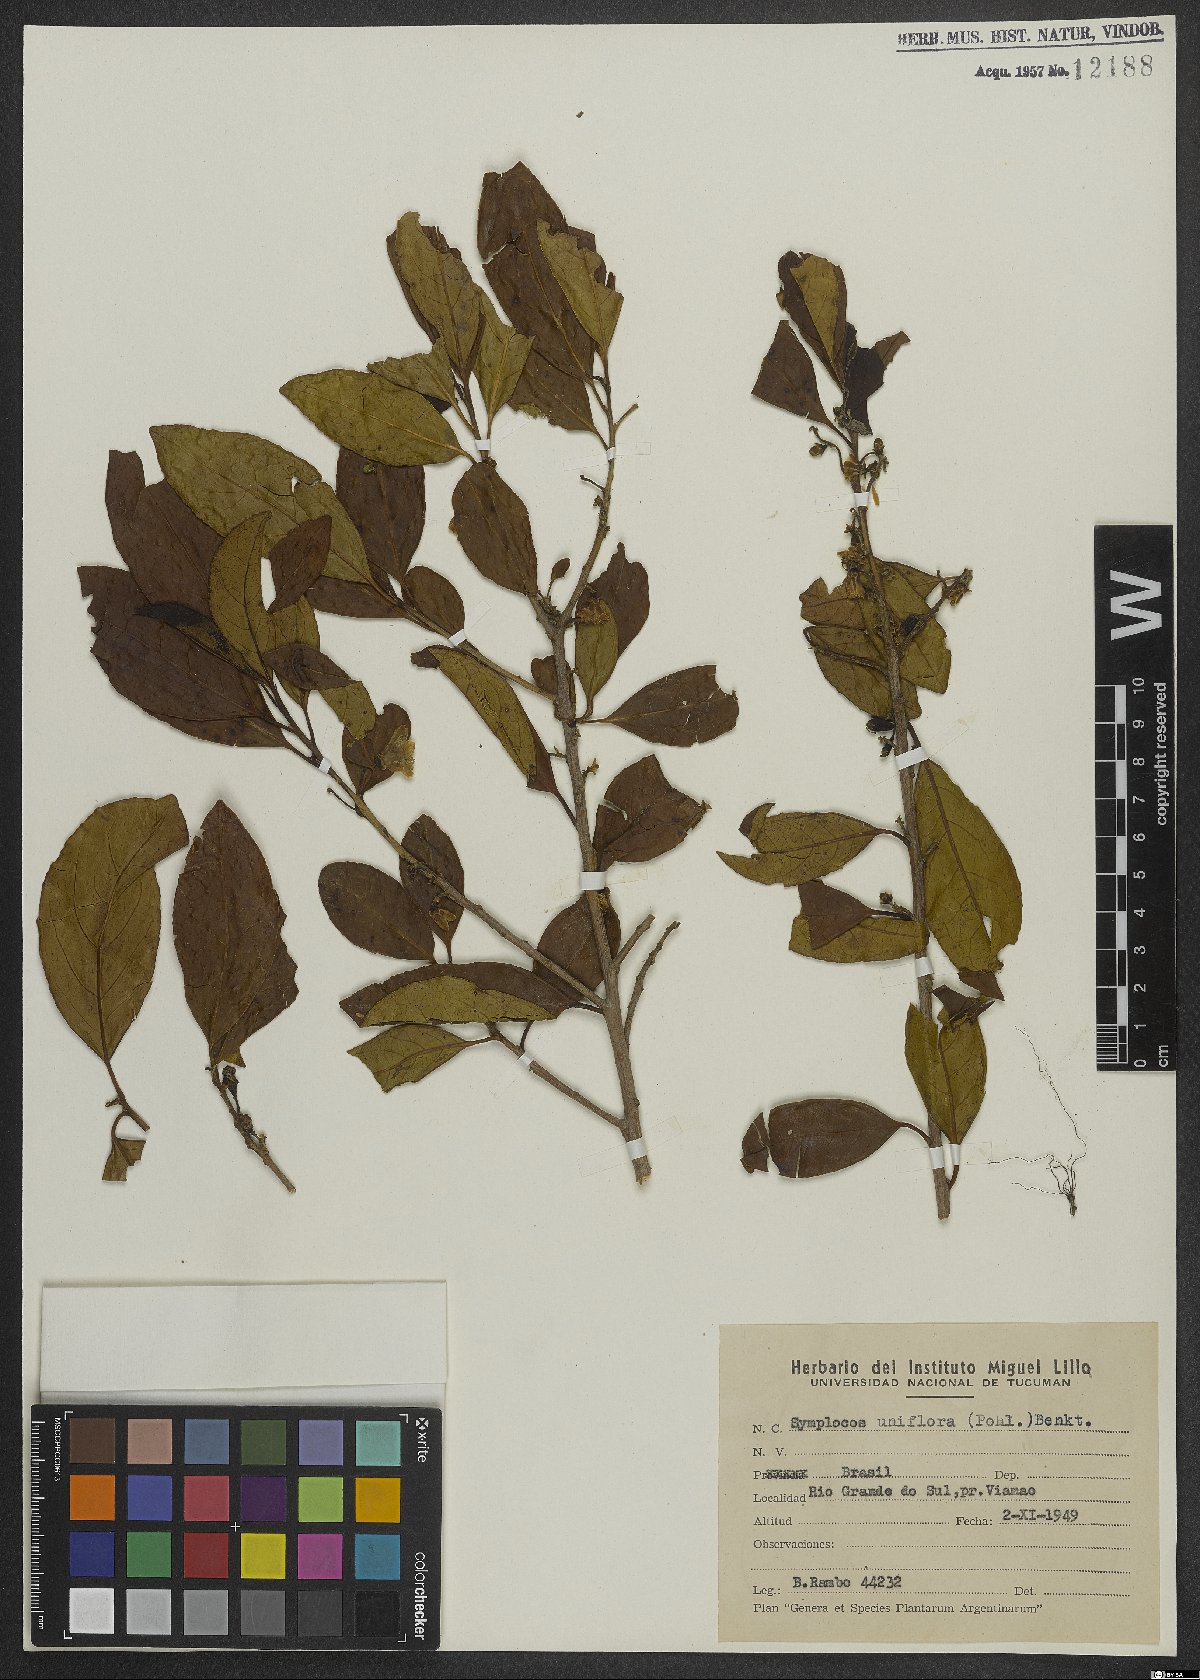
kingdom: Plantae
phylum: Tracheophyta
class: Magnoliopsida
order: Ericales
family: Symplocaceae
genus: Symplocos
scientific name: Symplocos uniflora
